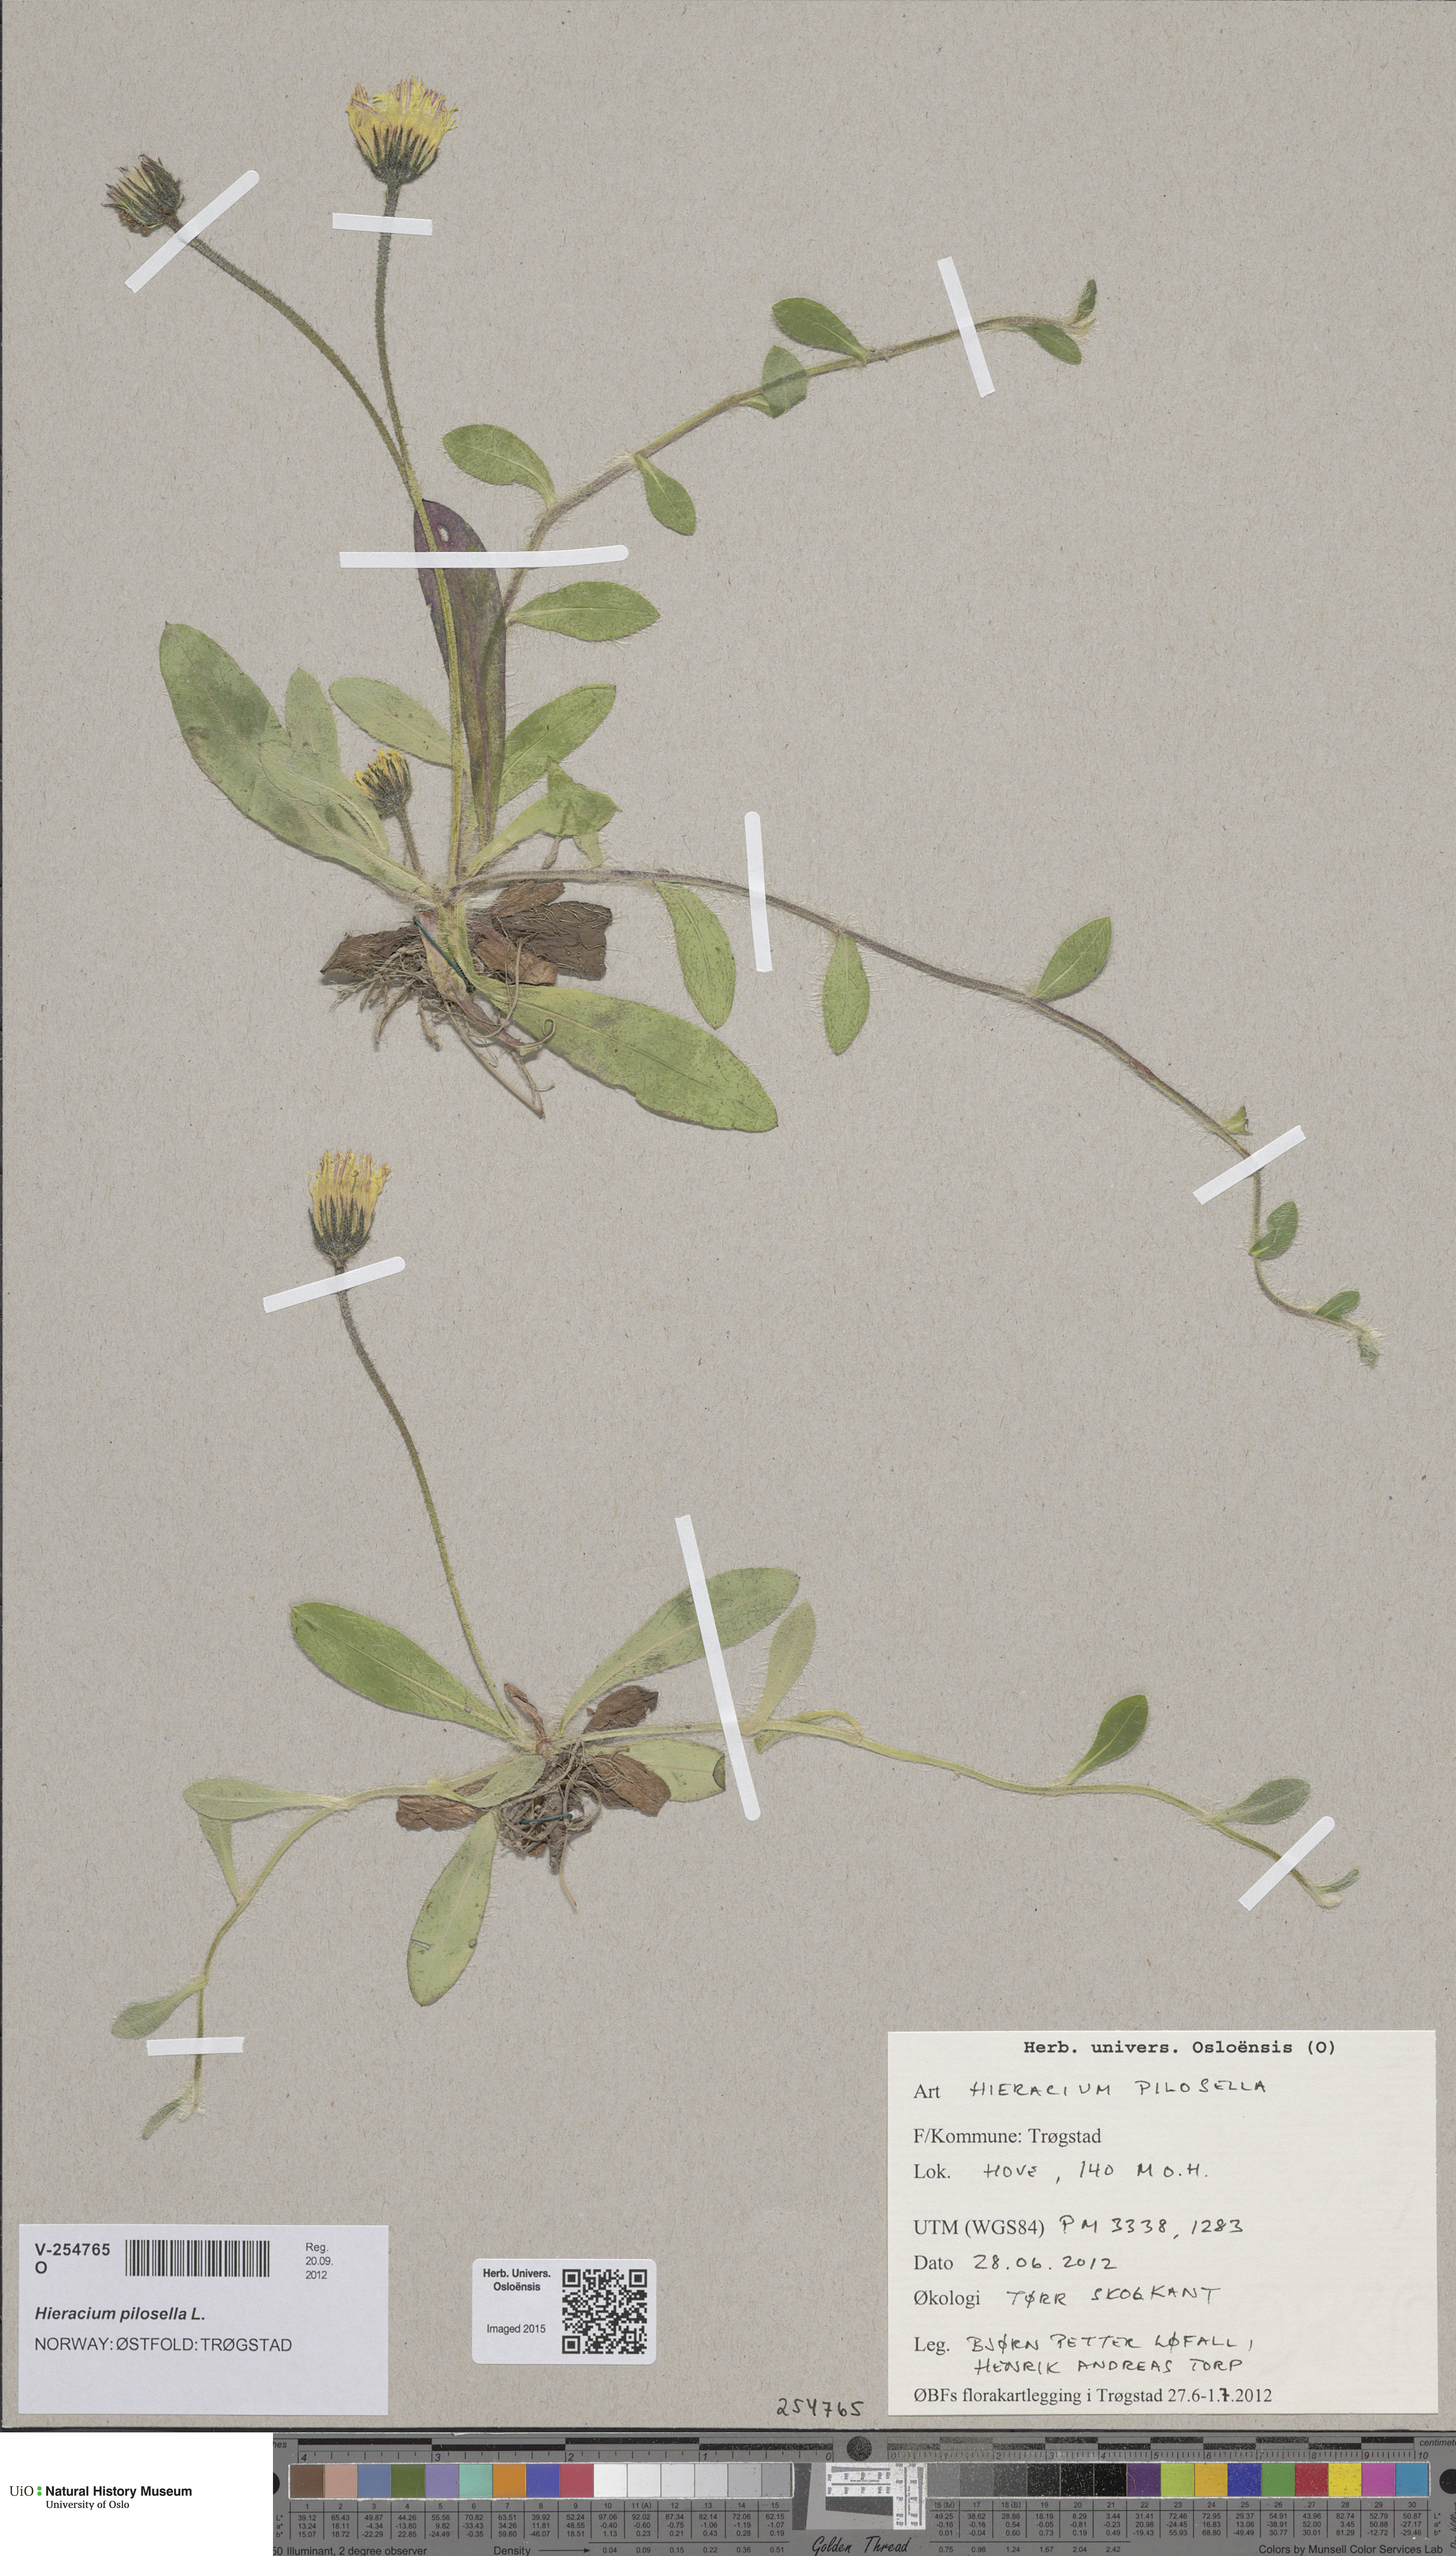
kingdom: Plantae
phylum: Tracheophyta
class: Magnoliopsida
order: Asterales
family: Asteraceae
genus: Pilosella
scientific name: Pilosella officinarum
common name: Mouse-ear hawkweed
